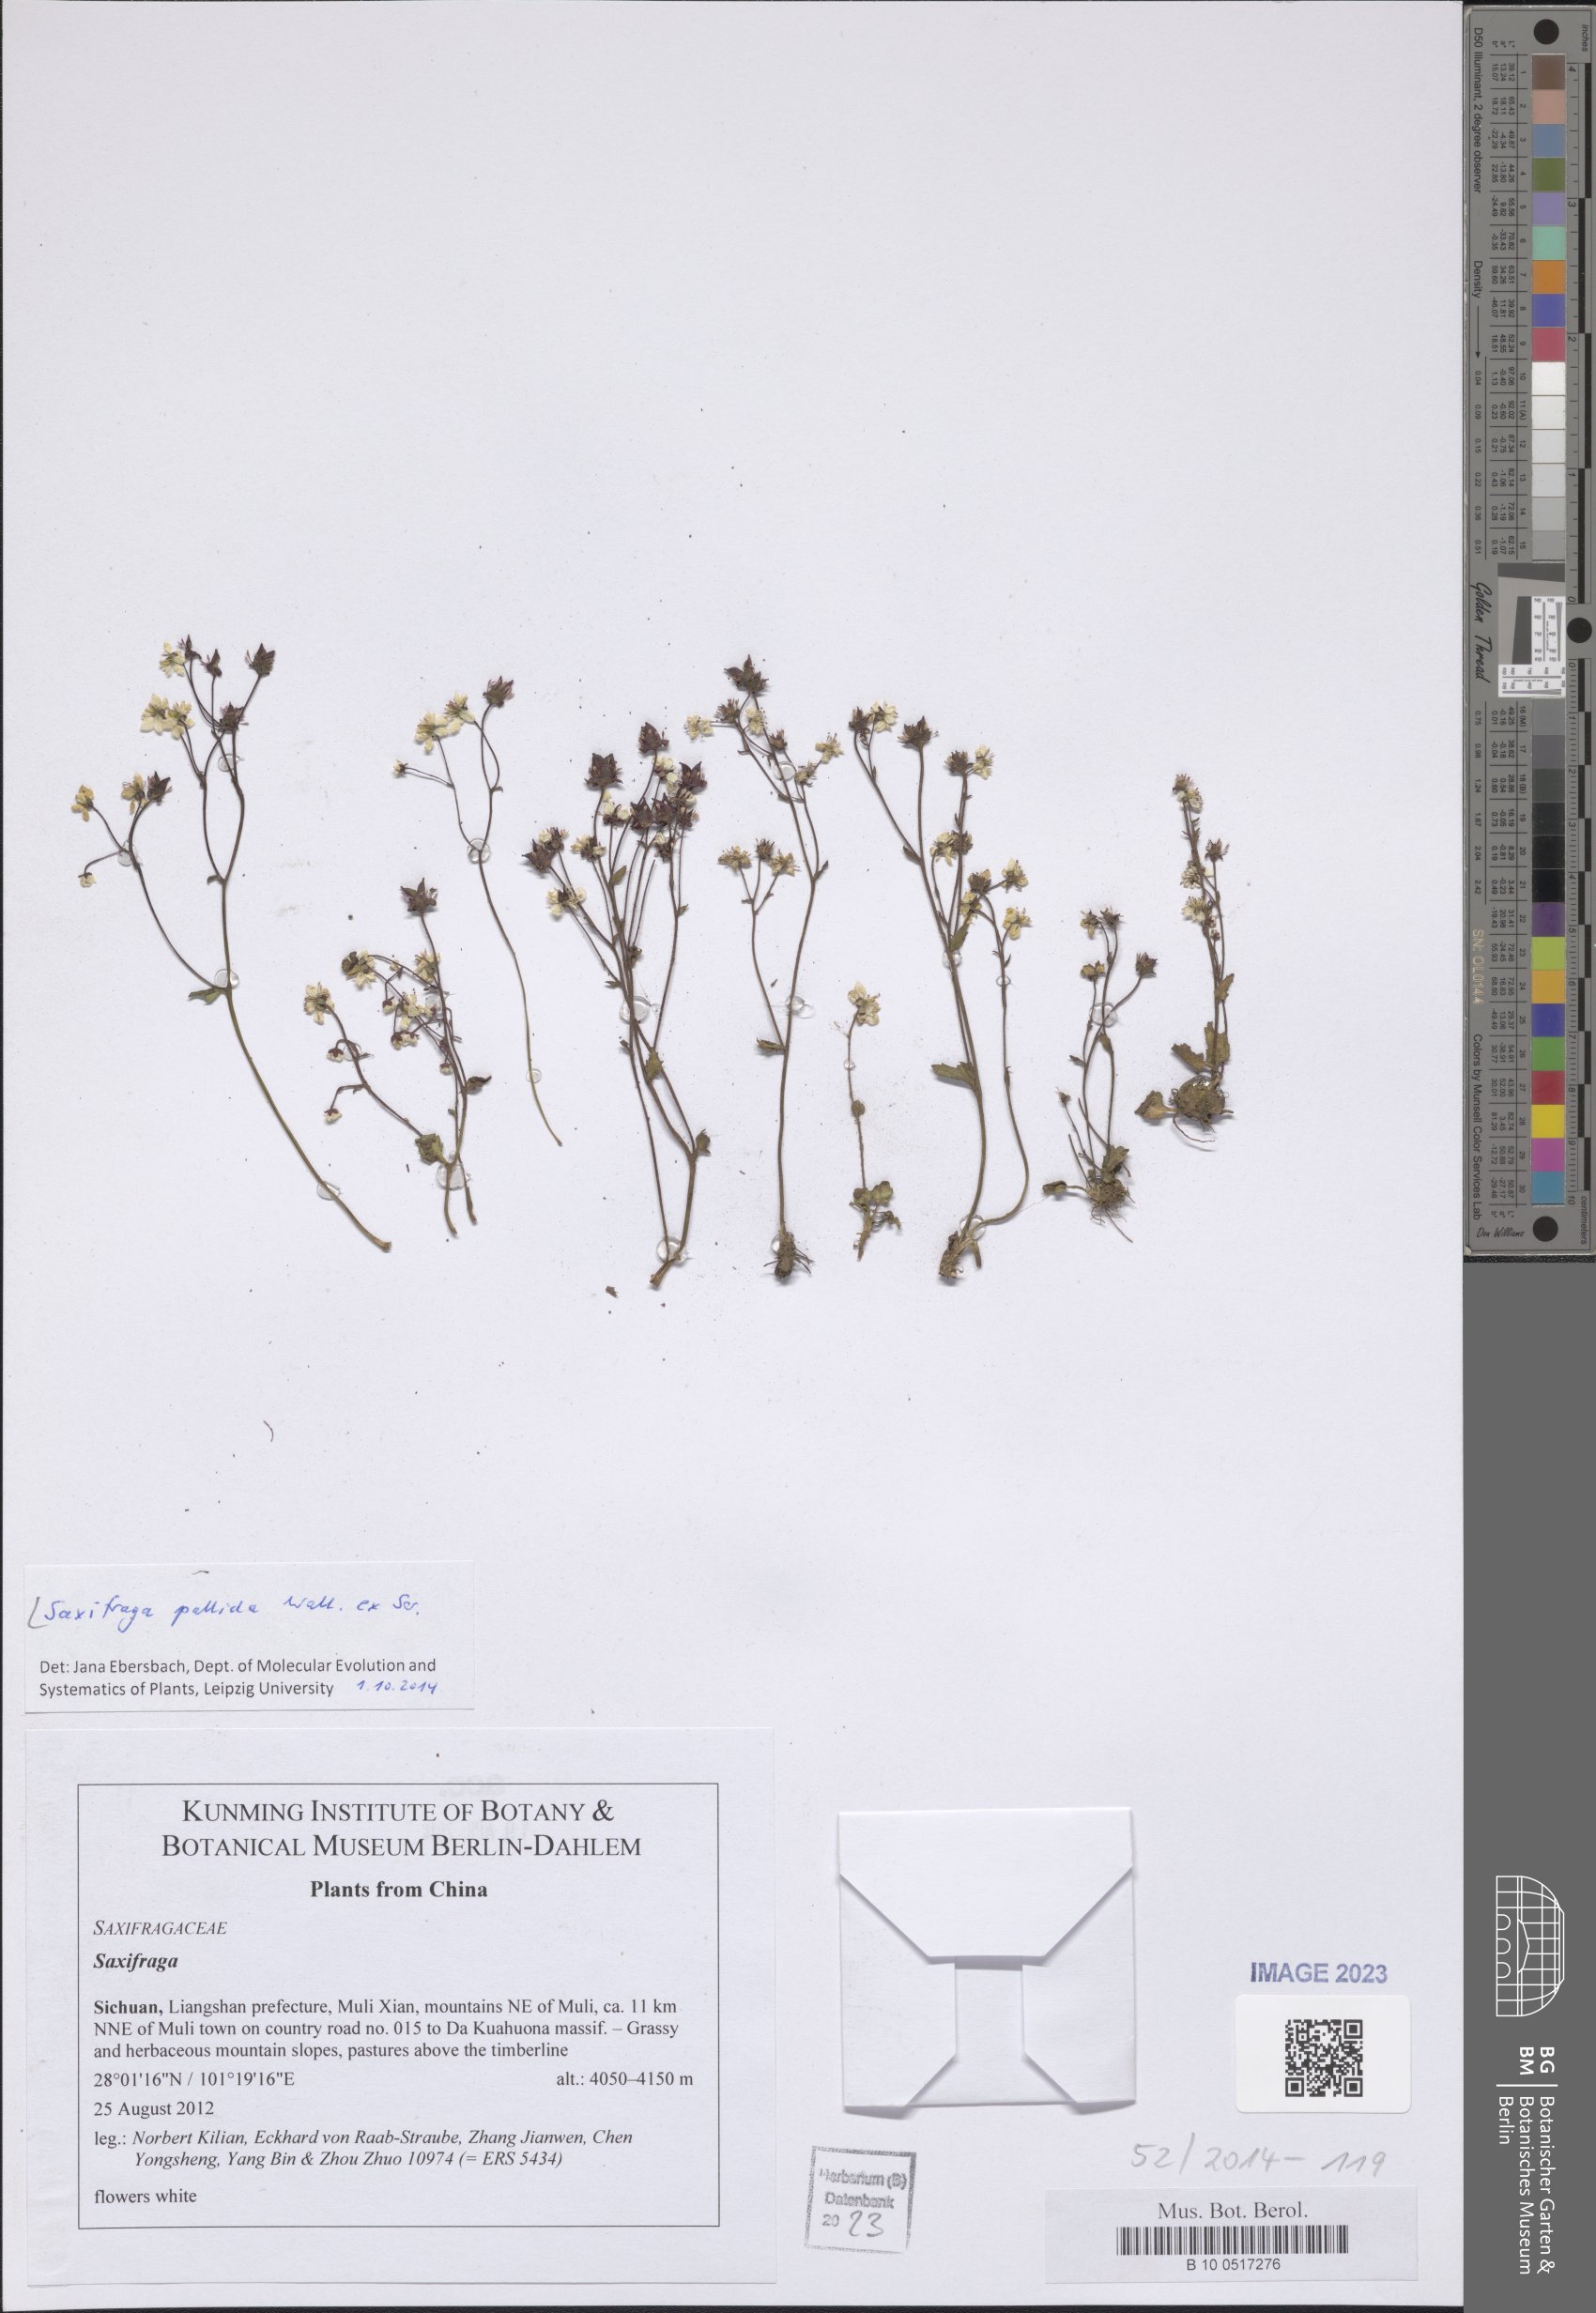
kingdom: Plantae
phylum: Tracheophyta
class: Magnoliopsida
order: Saxifragales
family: Saxifragaceae
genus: Micranthes
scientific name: Micranthes pallida
